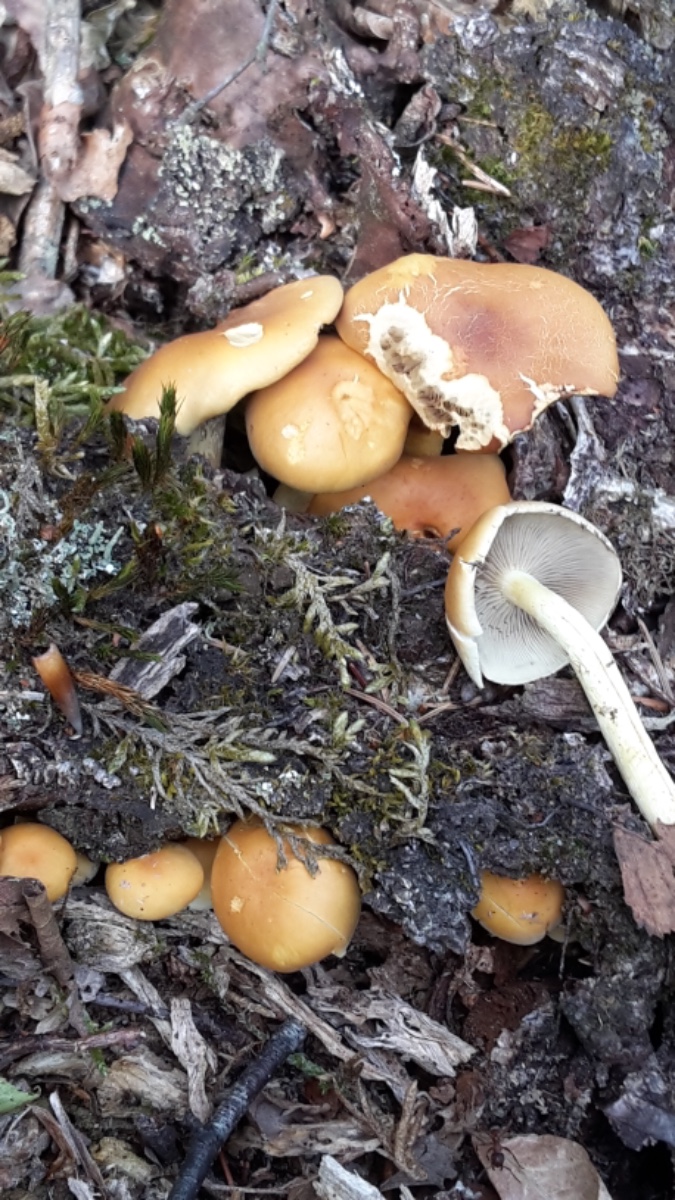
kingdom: Fungi
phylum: Basidiomycota
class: Agaricomycetes
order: Agaricales
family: Strophariaceae
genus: Hypholoma
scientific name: Hypholoma fasciculare
